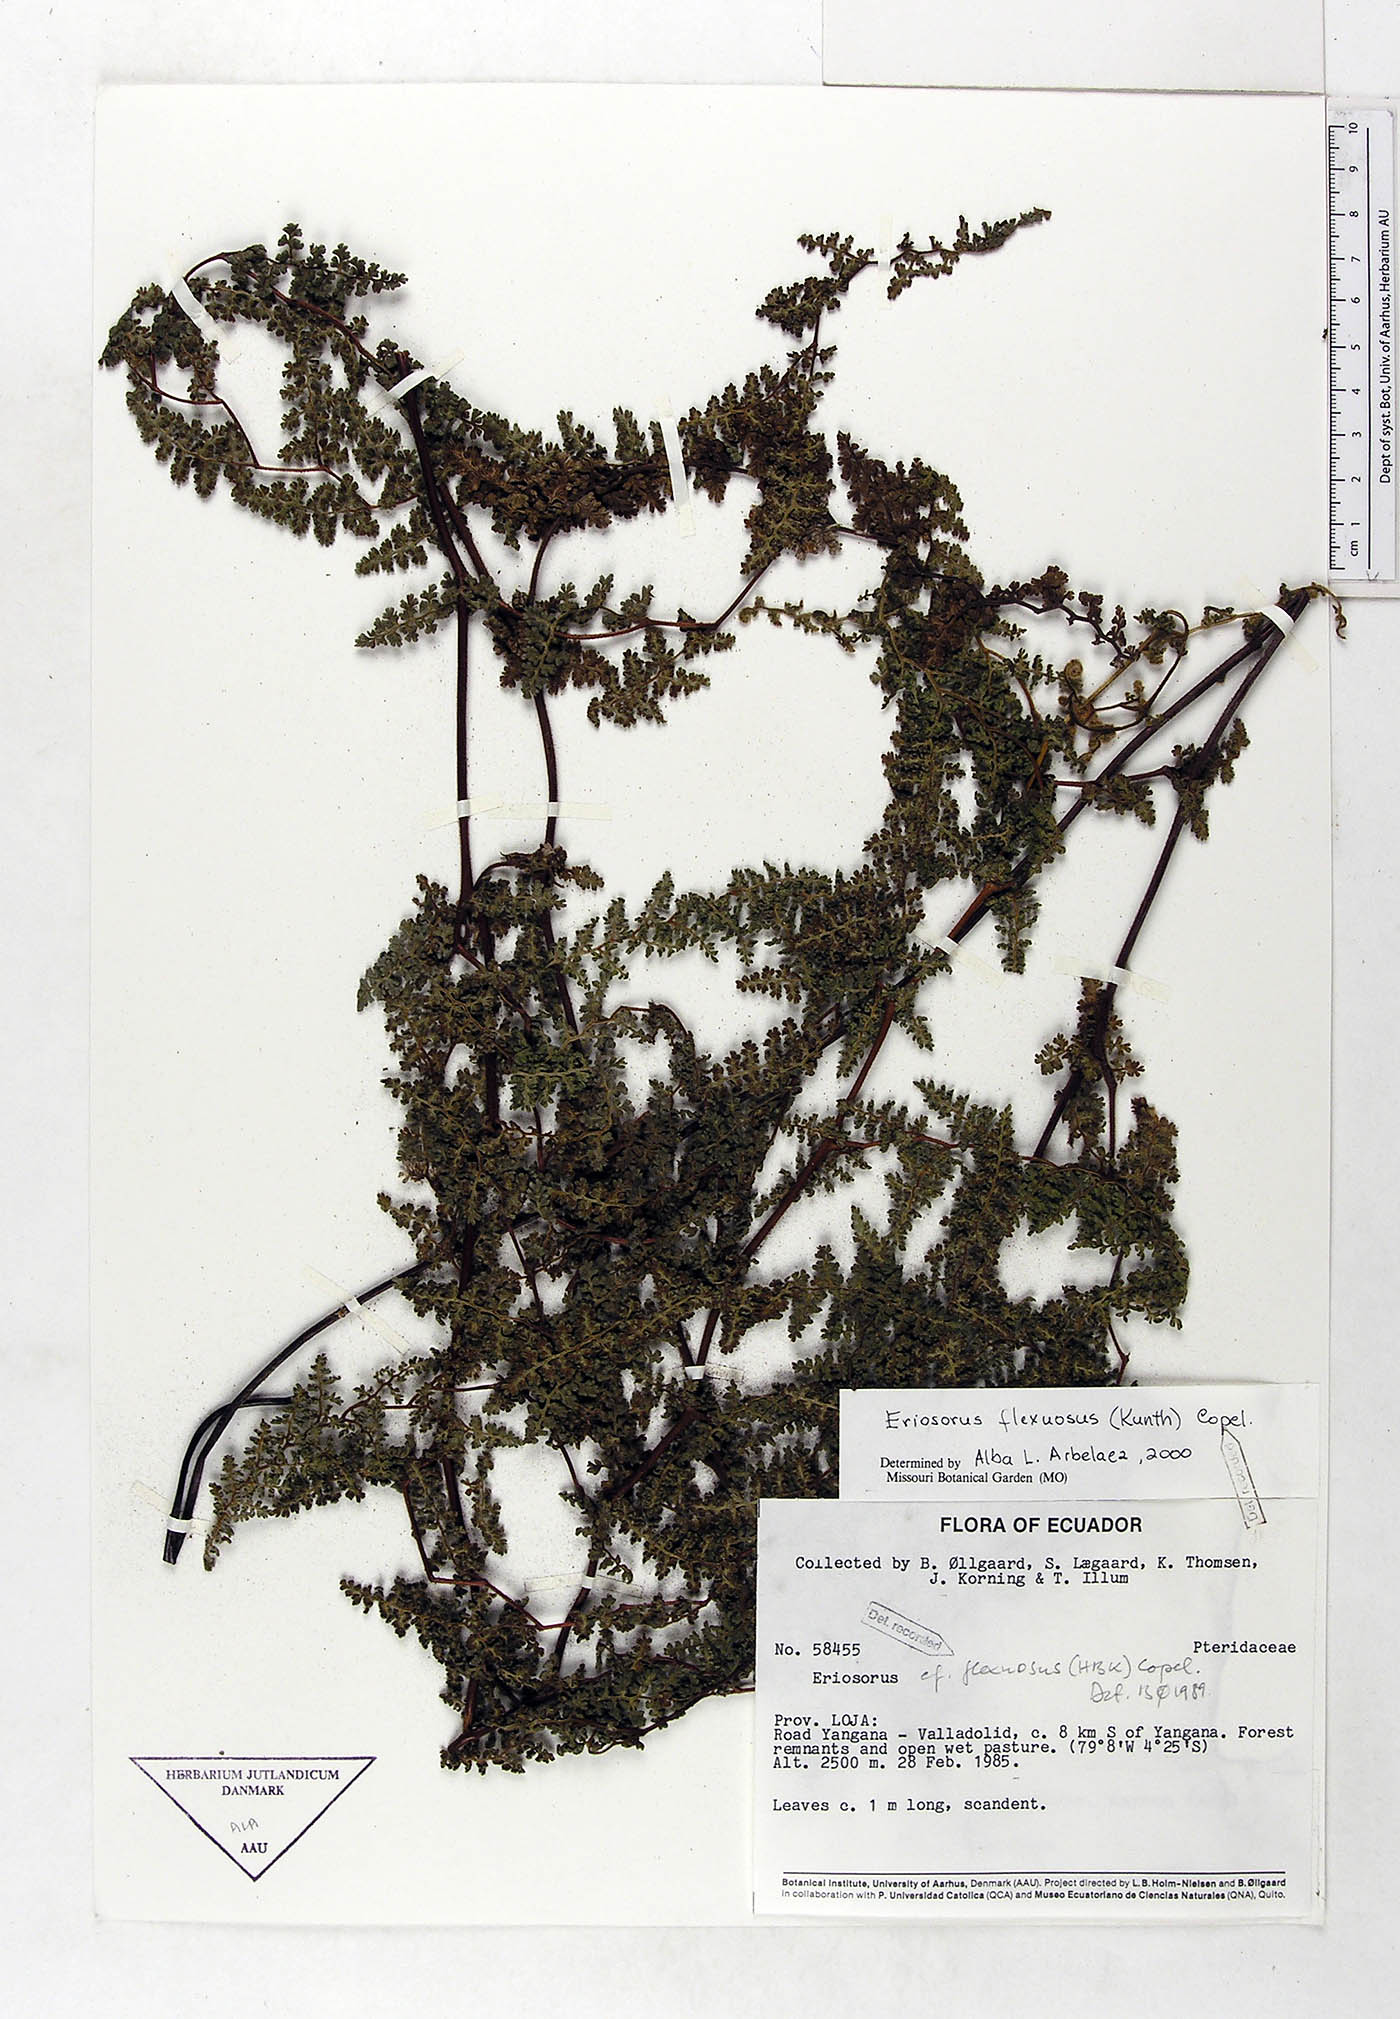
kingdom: Plantae
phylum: Tracheophyta
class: Polypodiopsida
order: Polypodiales
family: Pteridaceae
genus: Jamesonia
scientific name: Jamesonia flexuosa
